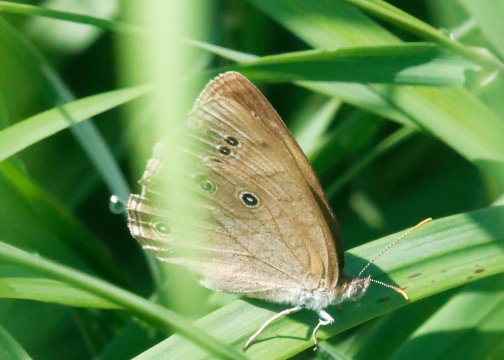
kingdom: Animalia
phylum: Arthropoda
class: Insecta
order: Lepidoptera
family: Nymphalidae
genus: Lethe
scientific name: Lethe eurydice
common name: Eyed Brown
